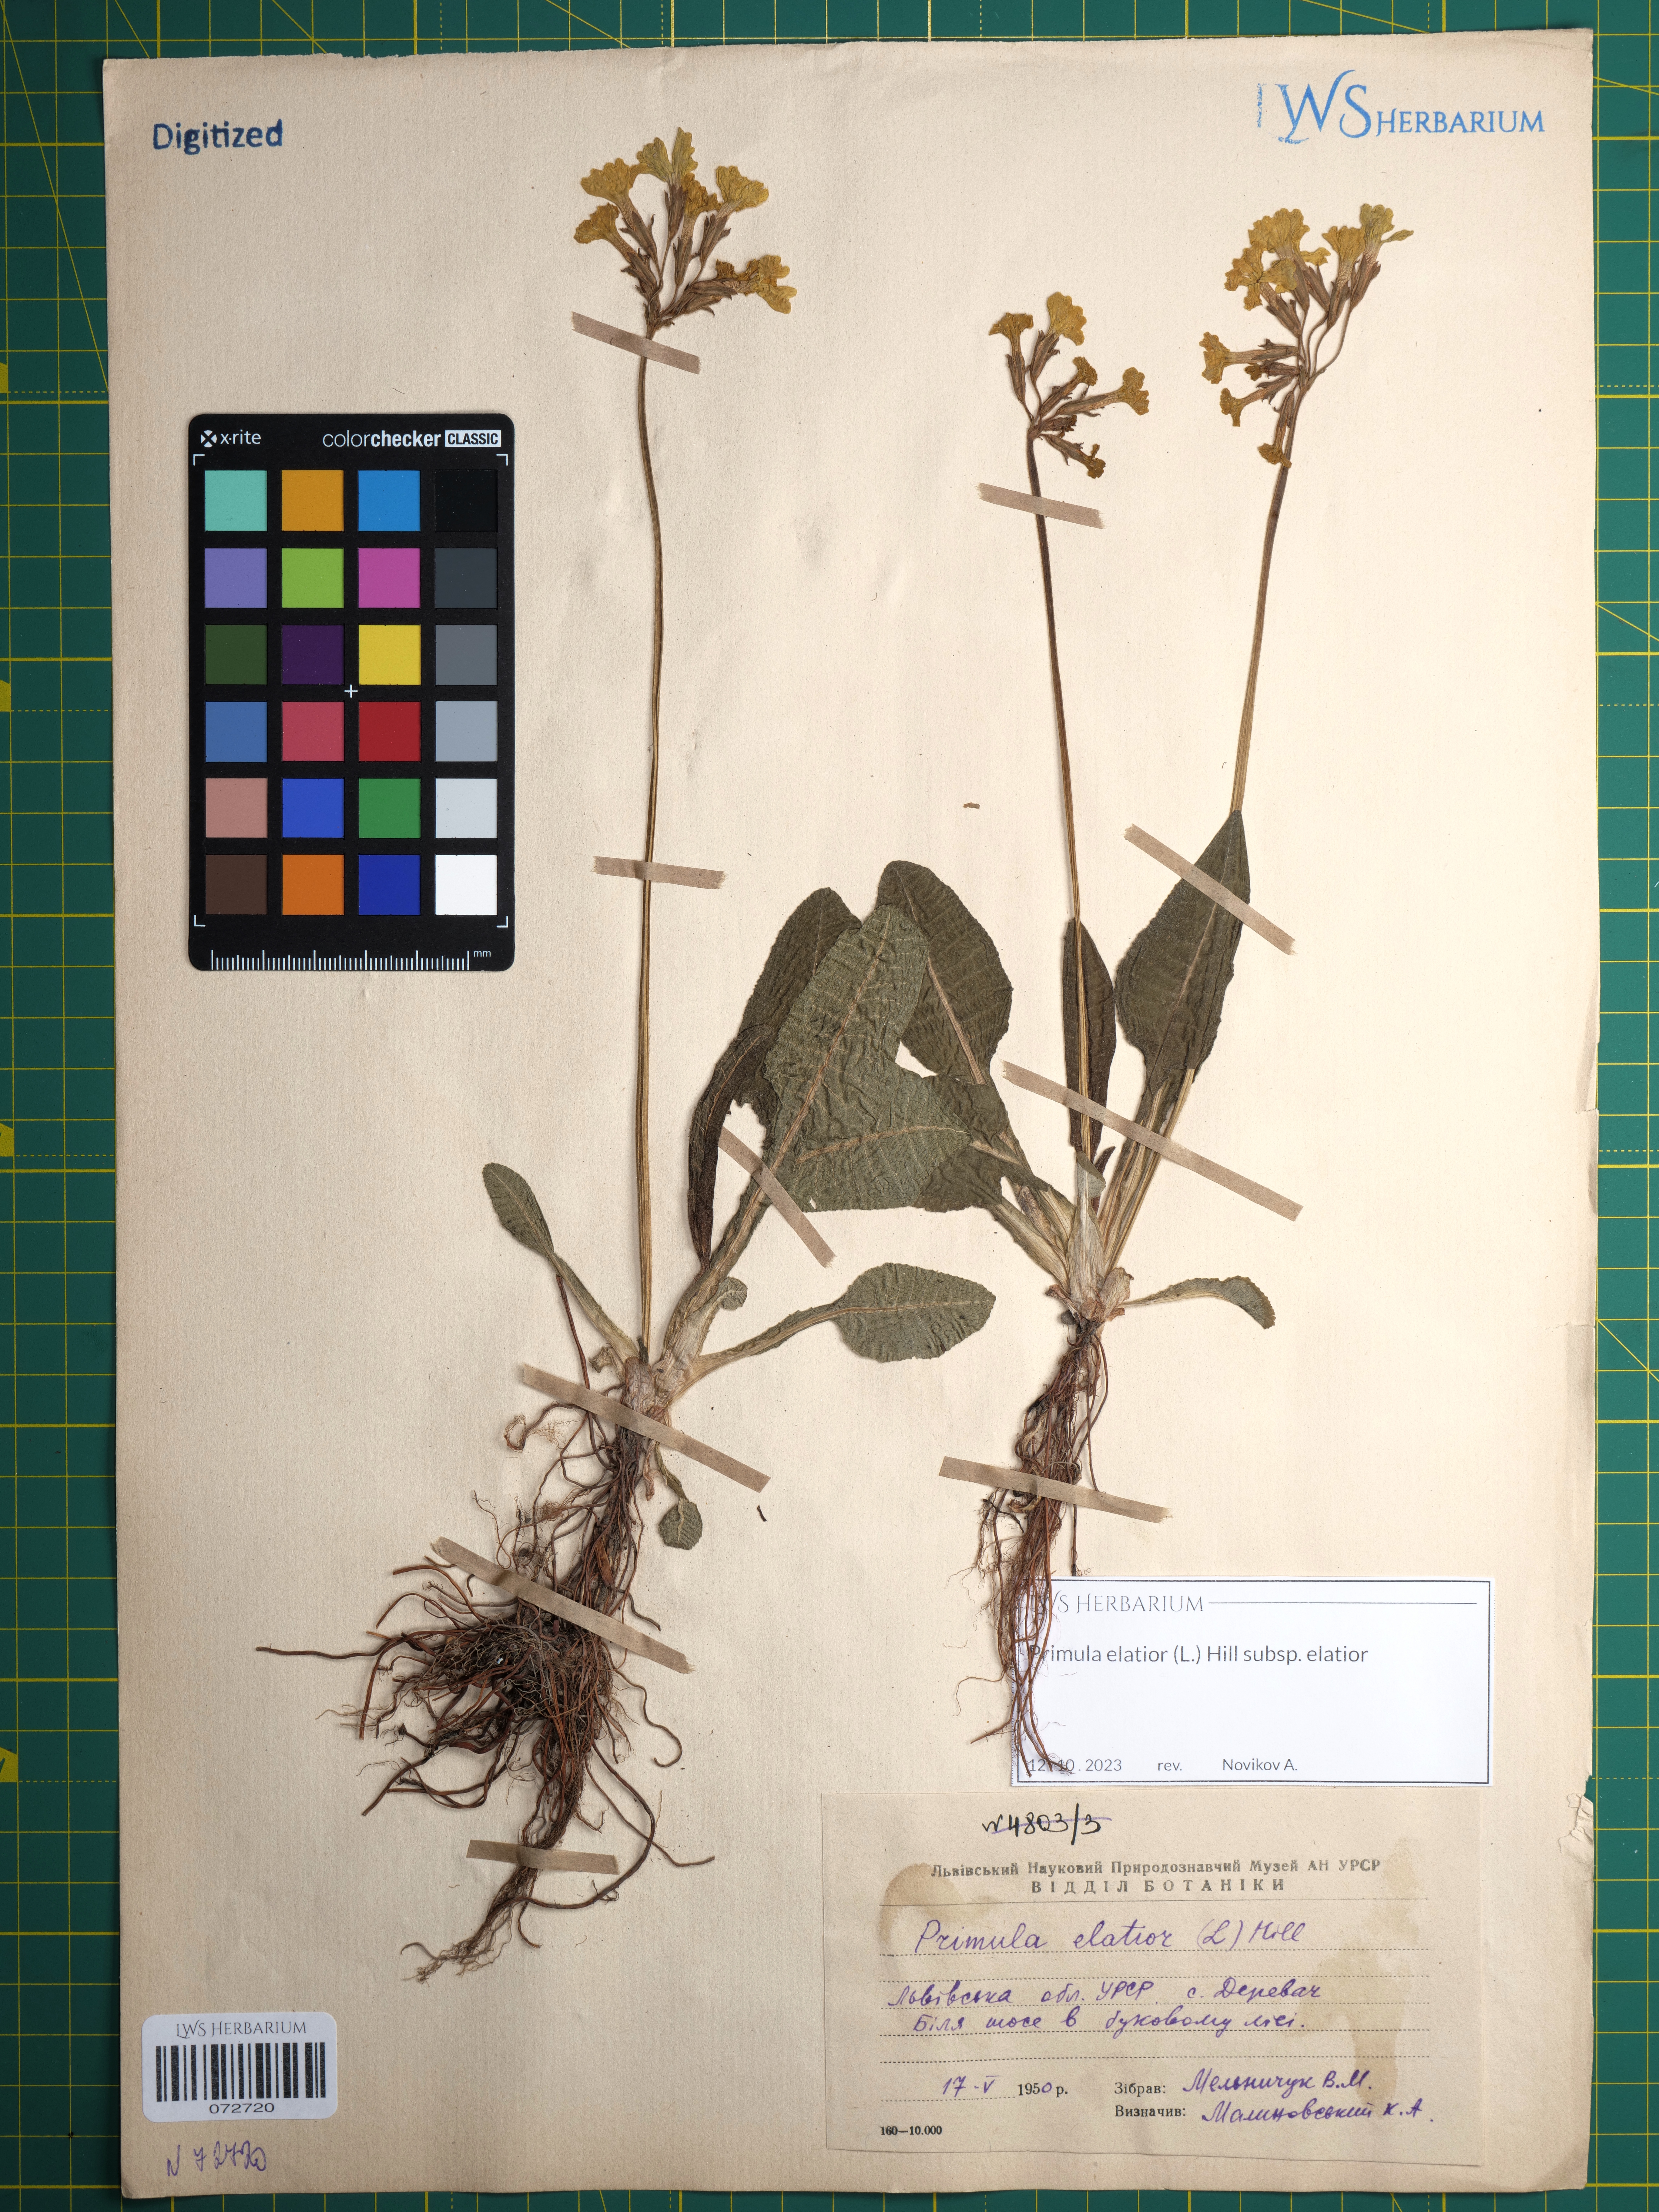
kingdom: Plantae
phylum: Tracheophyta
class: Magnoliopsida
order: Ericales
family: Primulaceae
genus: Primula
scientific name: Primula elatior
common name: Oxlip
